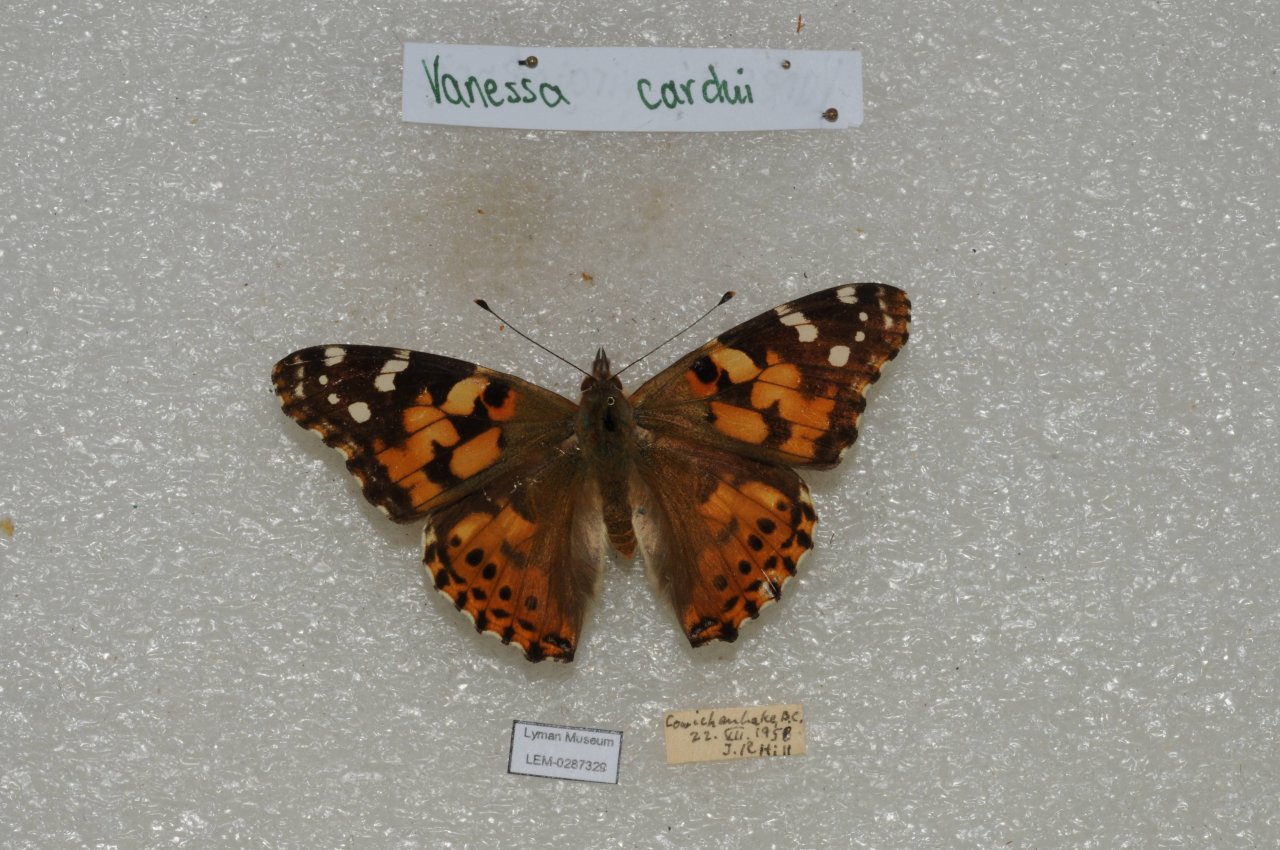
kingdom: Animalia
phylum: Arthropoda
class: Insecta
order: Lepidoptera
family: Nymphalidae
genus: Vanessa
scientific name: Vanessa cardui
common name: Painted Lady
